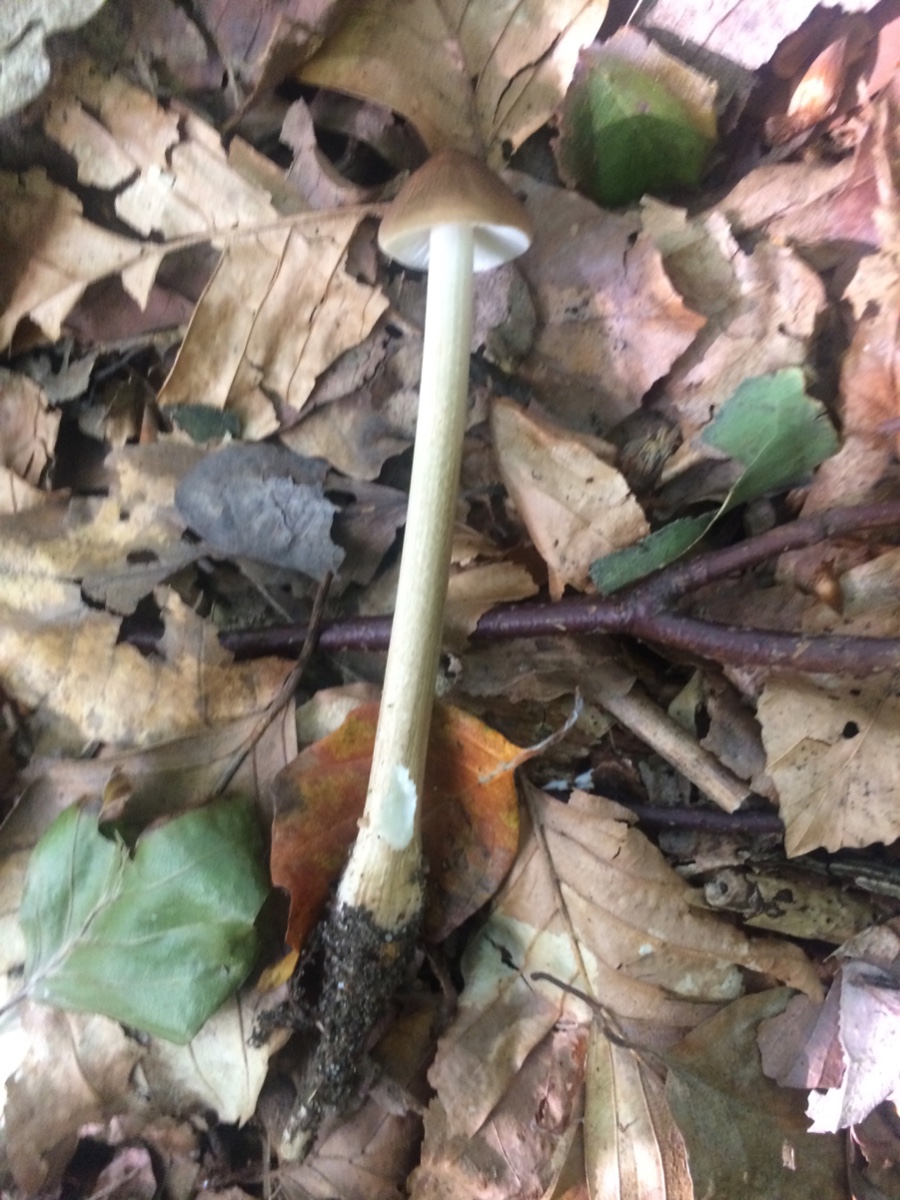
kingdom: Fungi
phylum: Basidiomycota
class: Agaricomycetes
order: Agaricales
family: Physalacriaceae
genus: Hymenopellis
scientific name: Hymenopellis radicata
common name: almindelig pælerodshat
